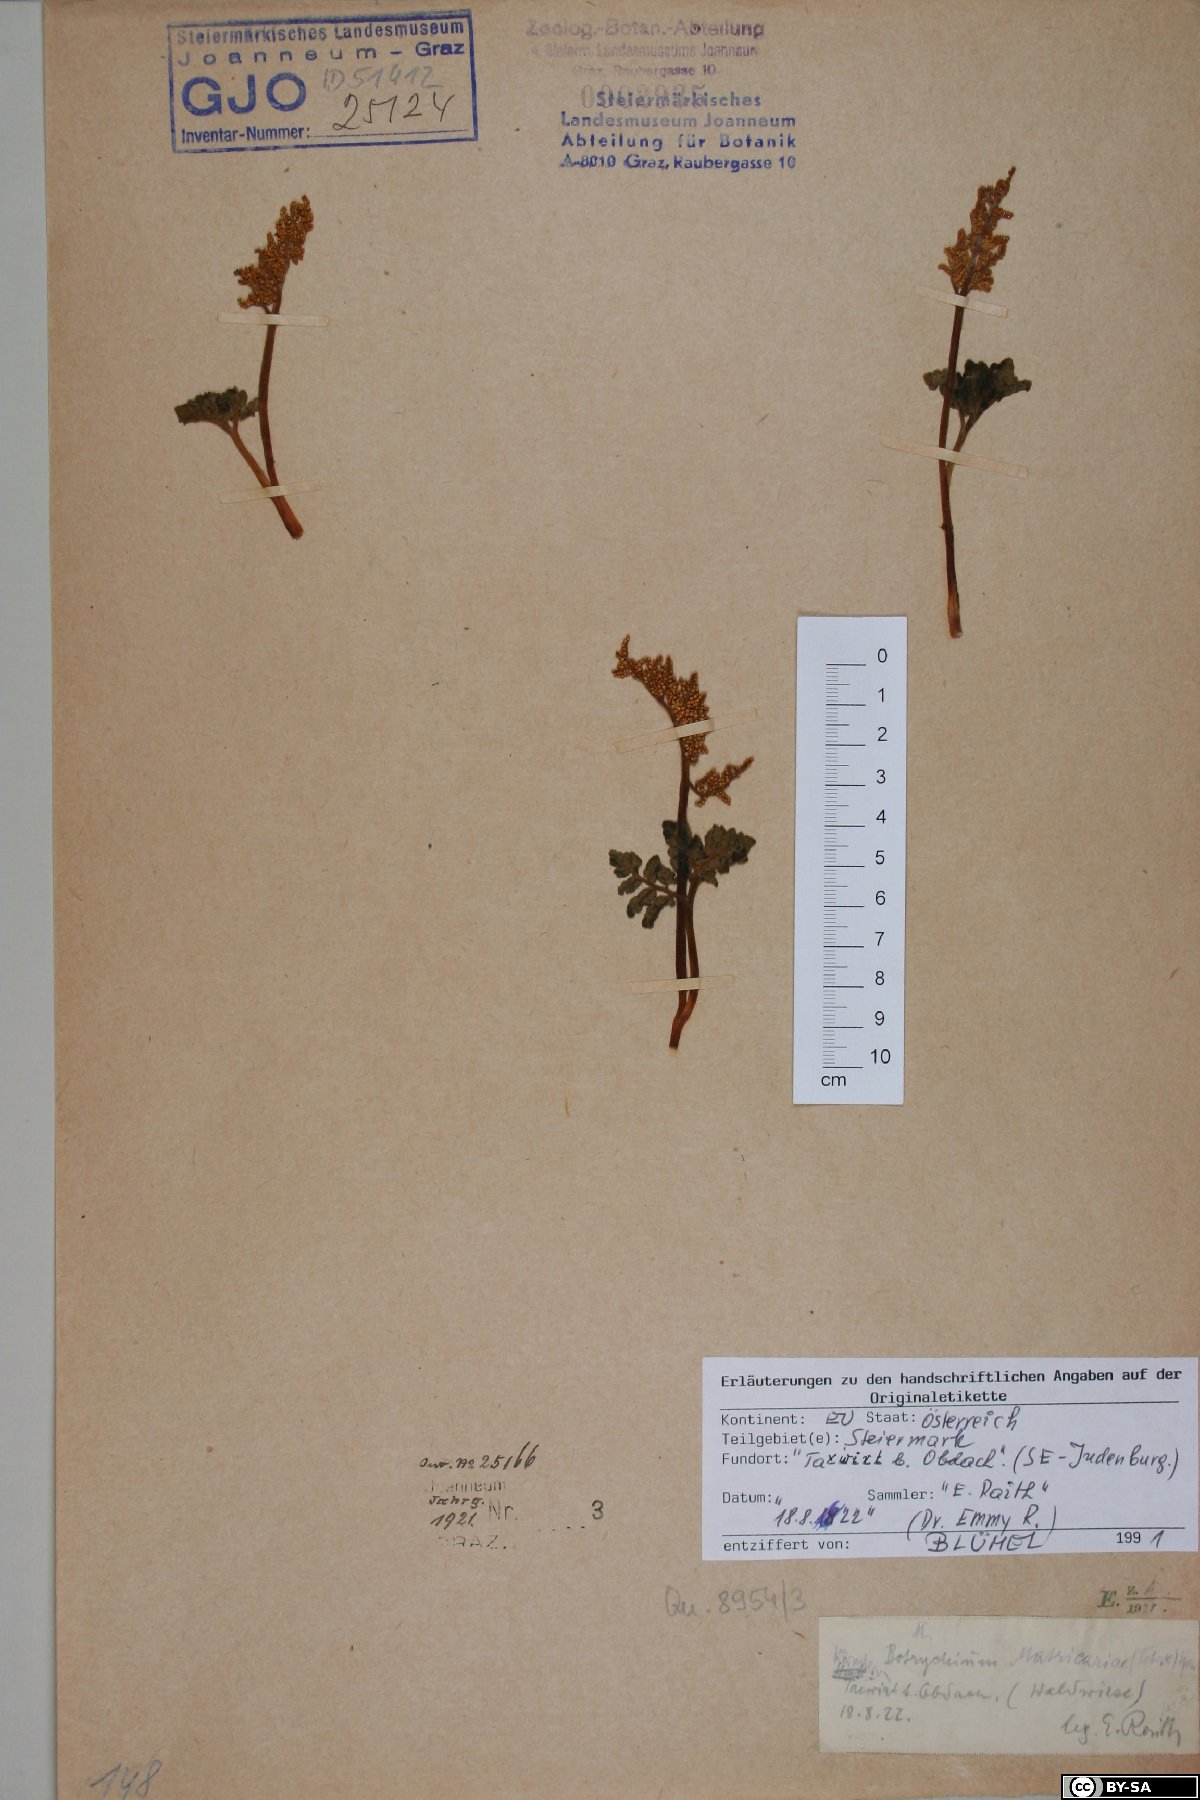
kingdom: Plantae
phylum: Tracheophyta
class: Polypodiopsida
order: Ophioglossales
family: Ophioglossaceae
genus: Sceptridium
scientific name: Sceptridium multifidum
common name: Leathery grape fern
